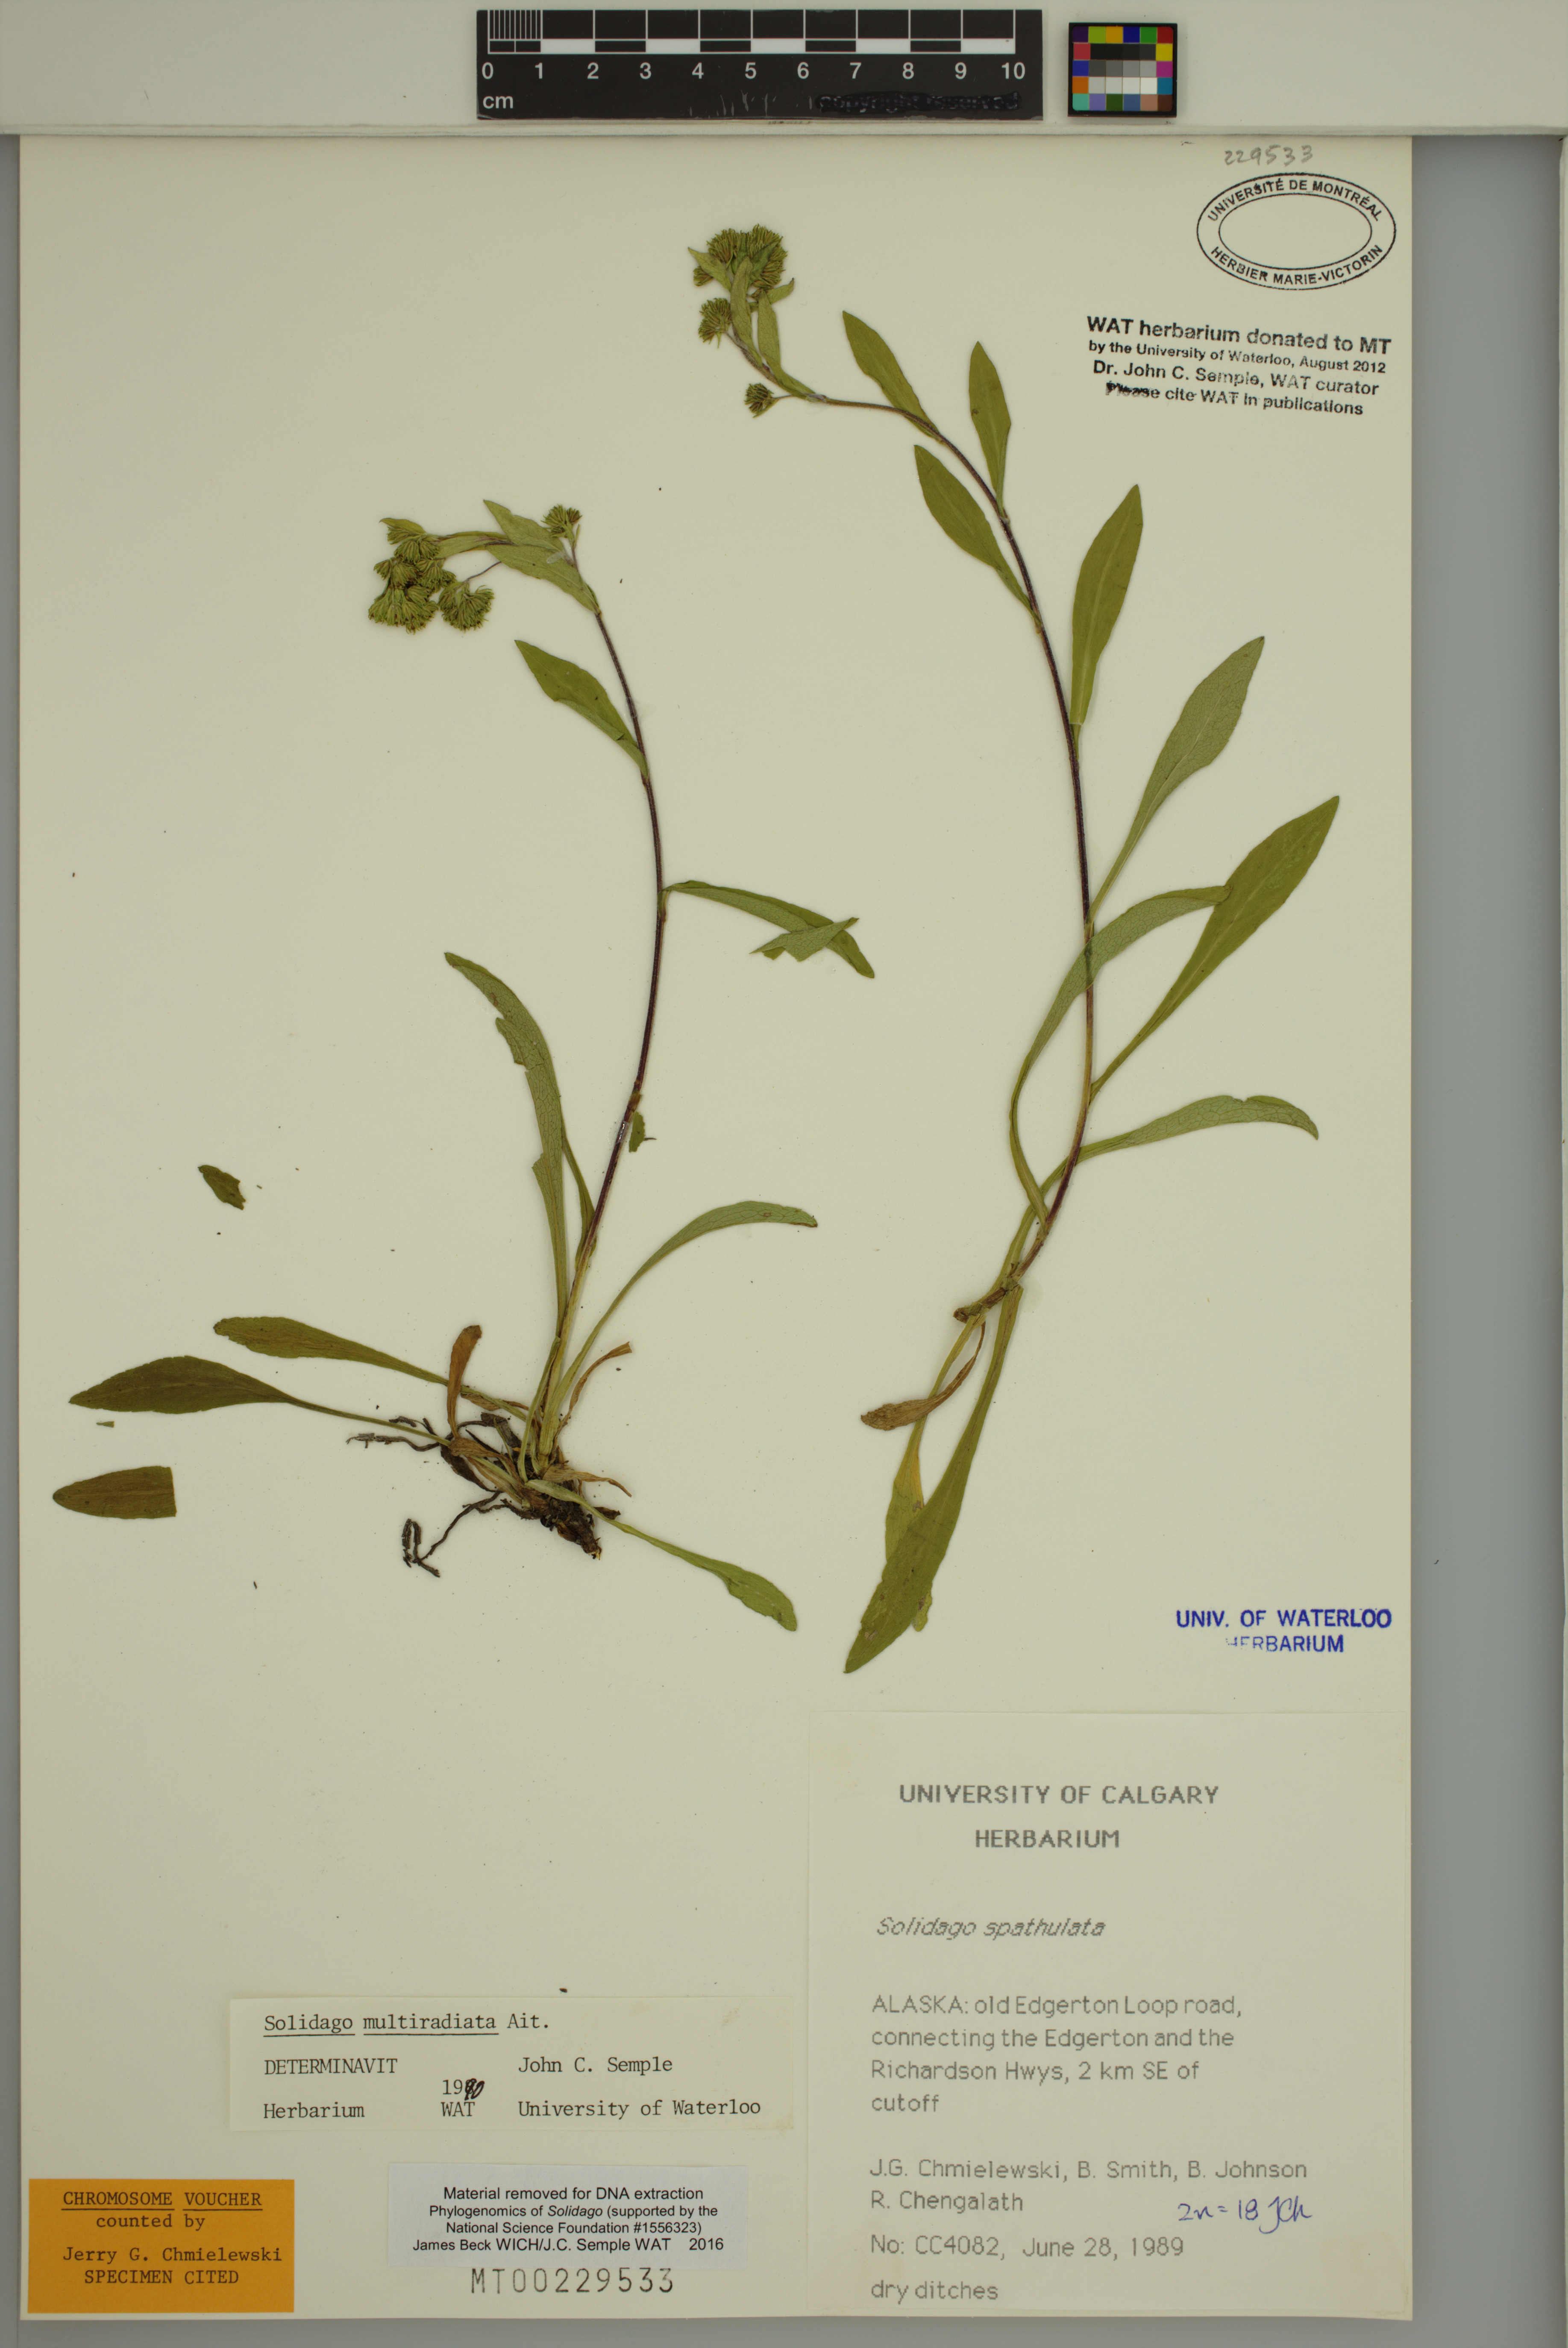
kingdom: Plantae
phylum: Tracheophyta
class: Magnoliopsida
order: Asterales
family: Asteraceae
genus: Solidago
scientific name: Solidago multiradiata
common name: Northern goldenrod
